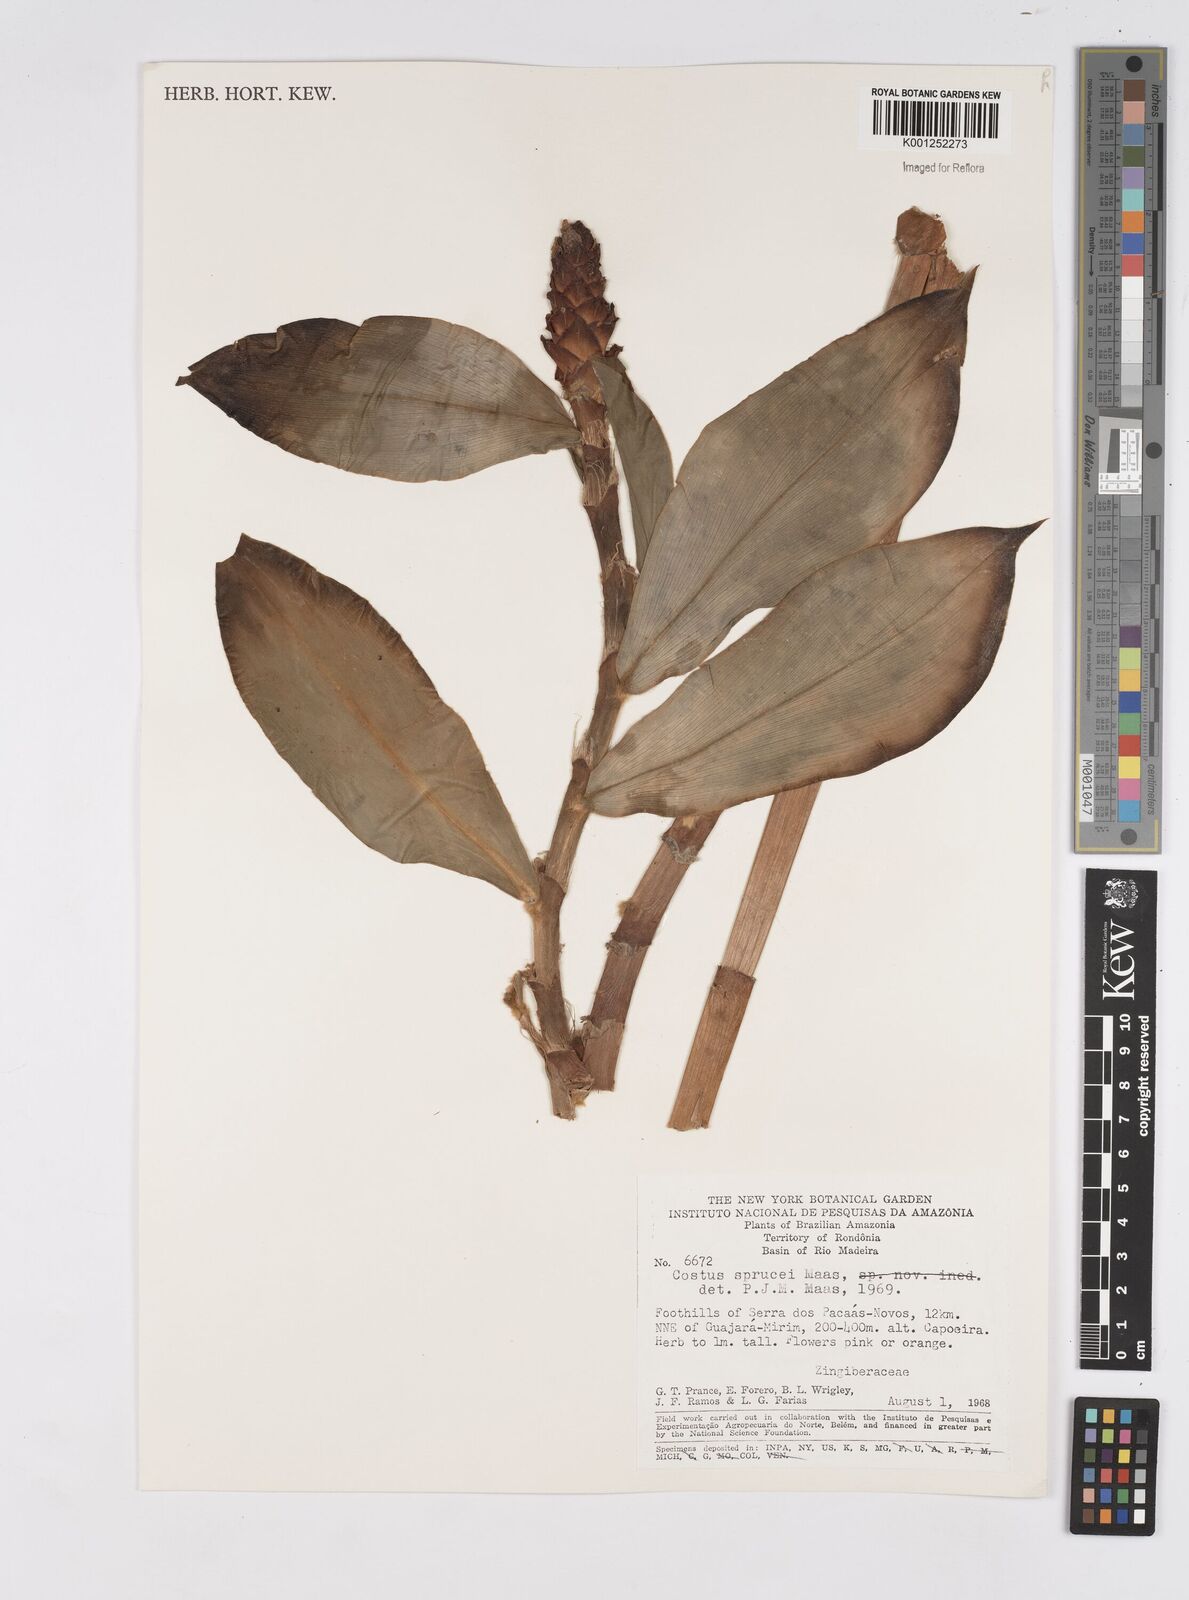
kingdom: Plantae
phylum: Tracheophyta
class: Liliopsida
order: Zingiberales
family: Costaceae
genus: Costus
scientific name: Costus sprucei
